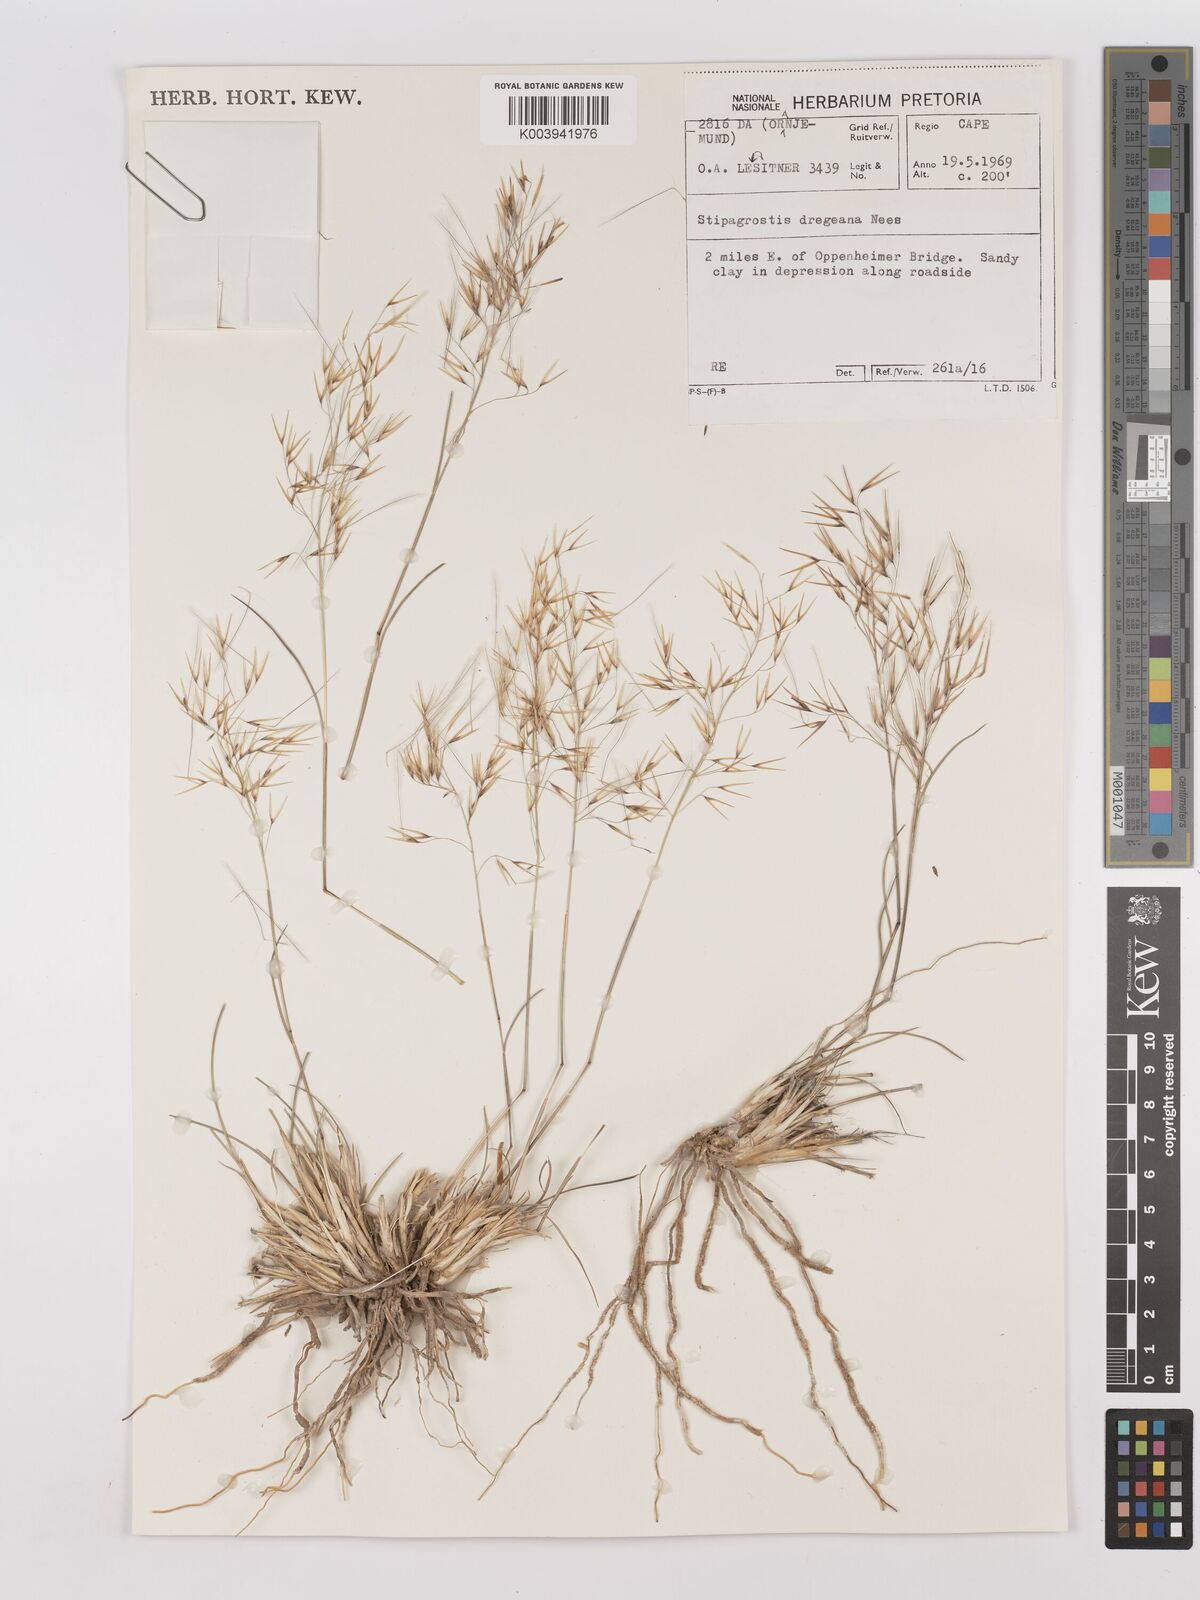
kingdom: Plantae
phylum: Tracheophyta
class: Liliopsida
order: Poales
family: Poaceae
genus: Stipagrostis
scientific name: Stipagrostis dregeana
